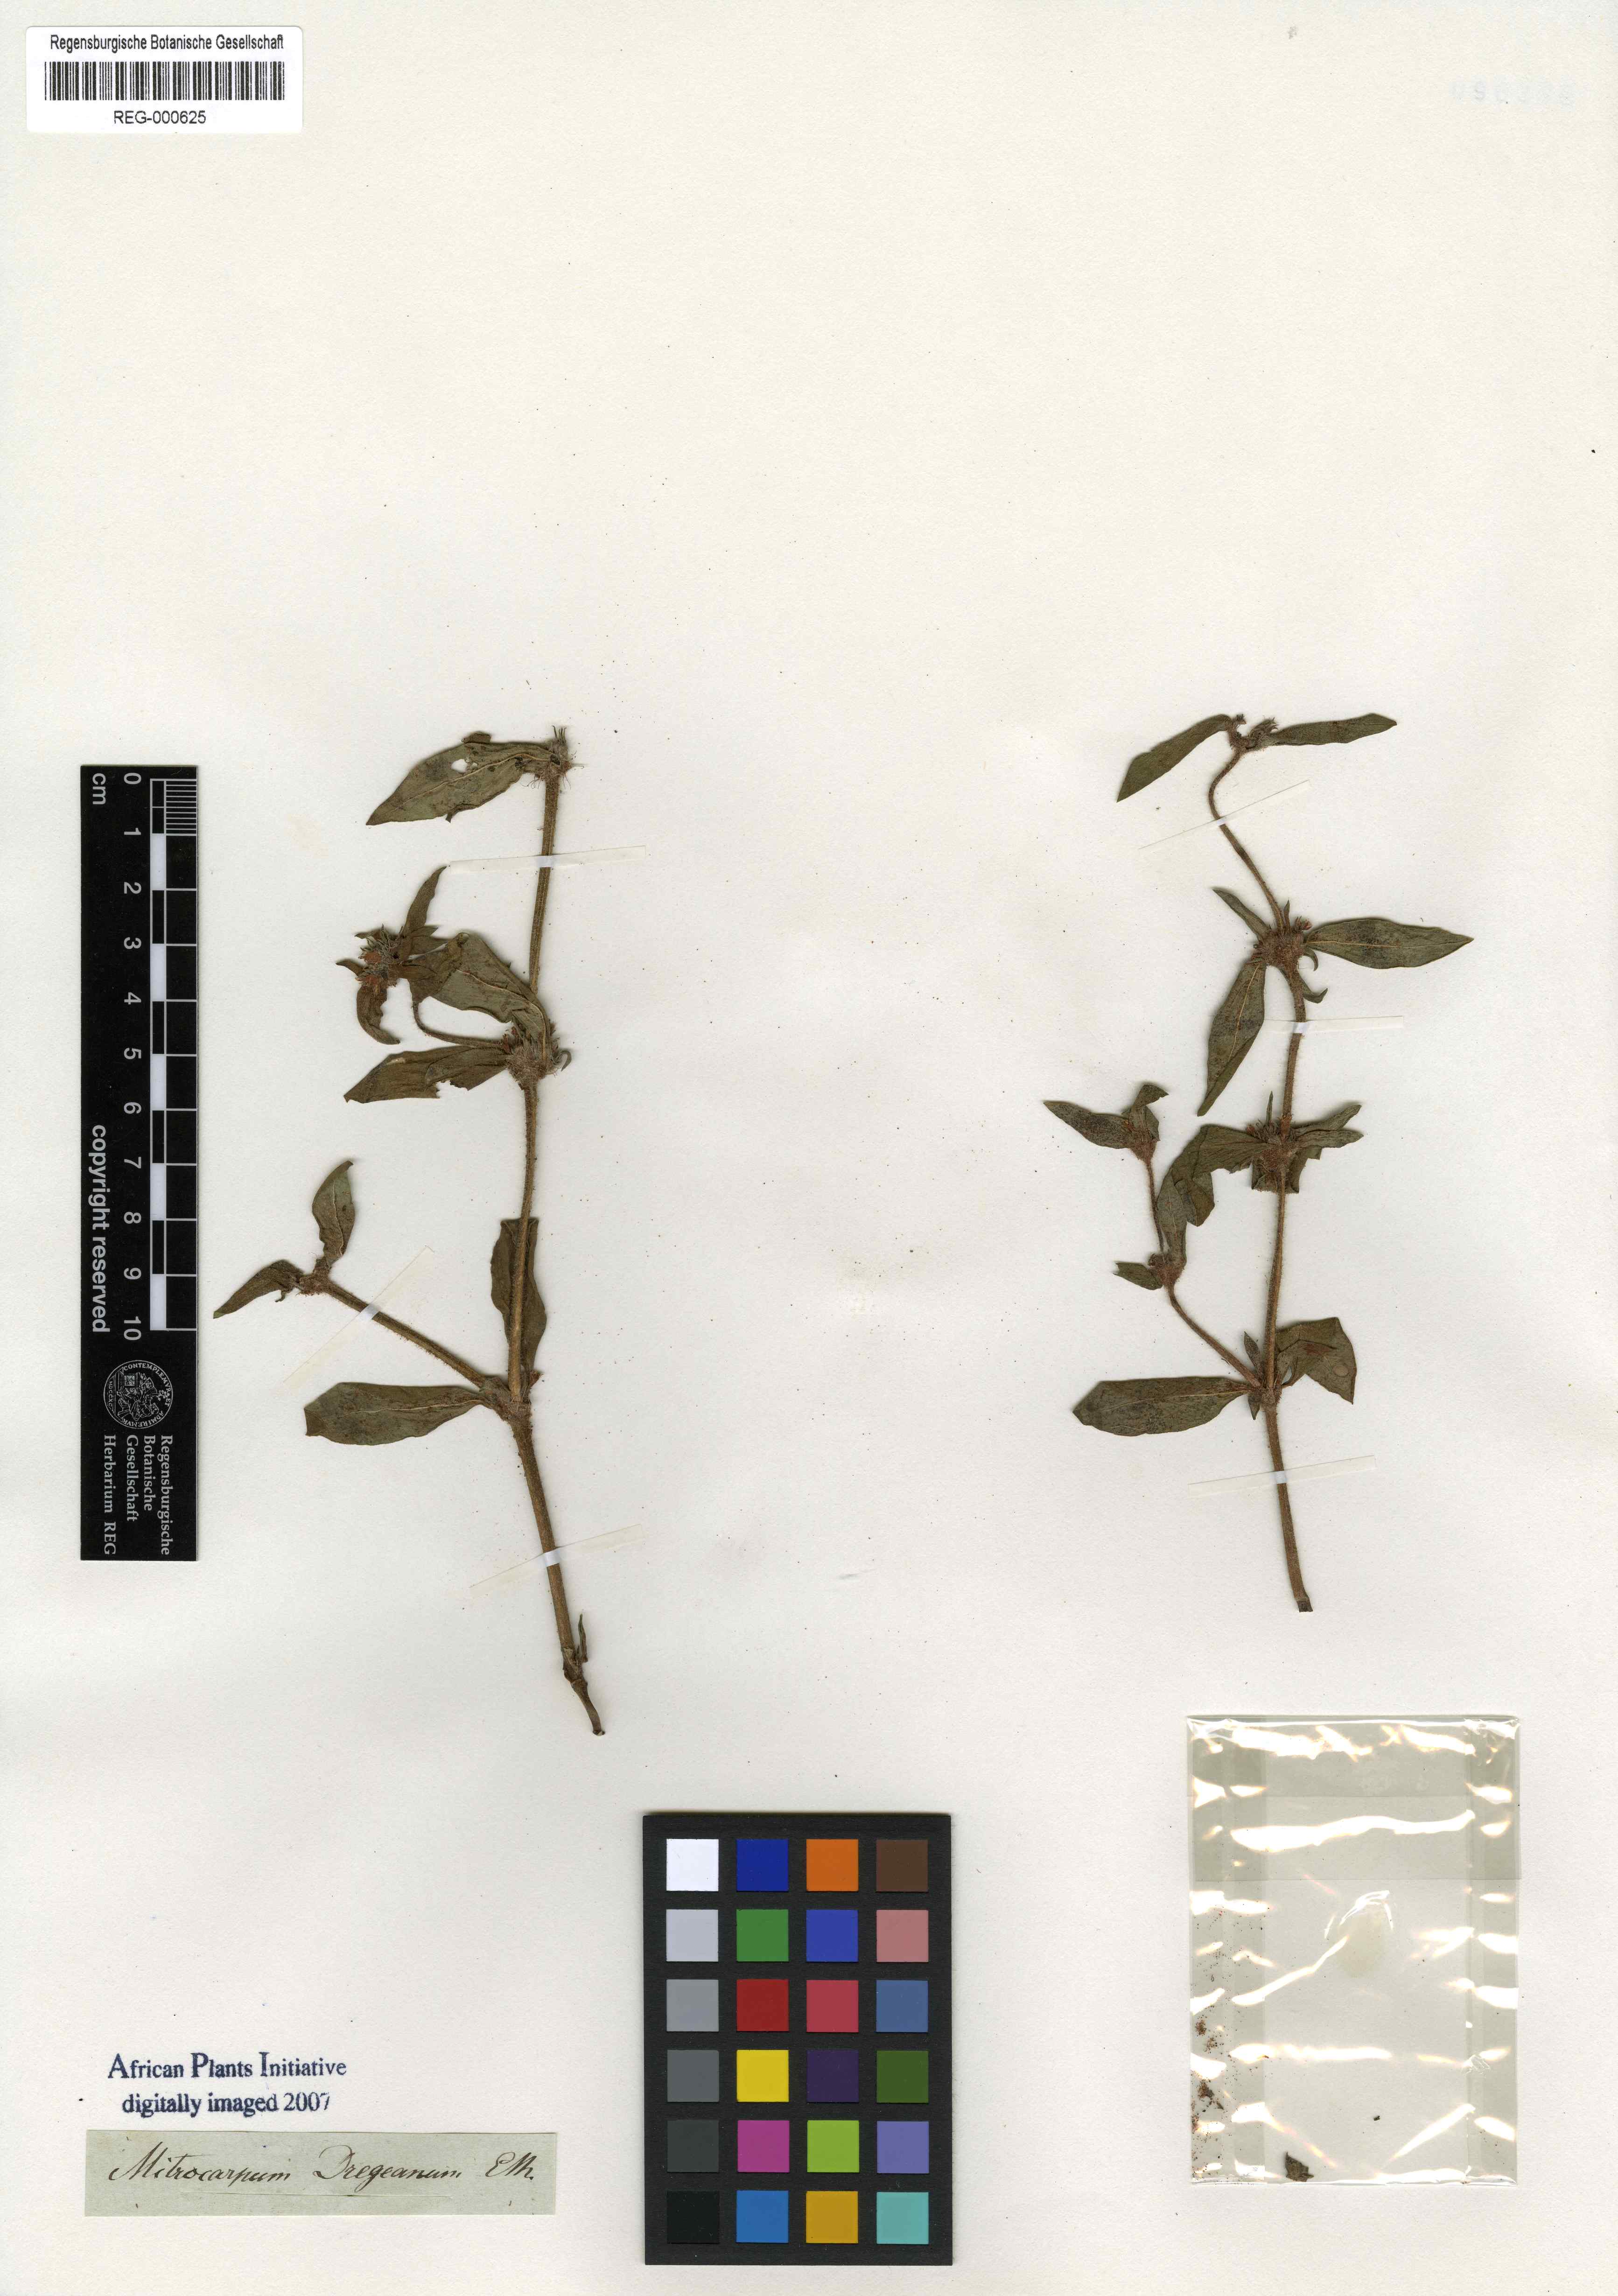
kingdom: Plantae
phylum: Tracheophyta
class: Magnoliopsida
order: Gentianales
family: Rubiaceae
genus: Spermacoce
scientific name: Spermacoce senensis
